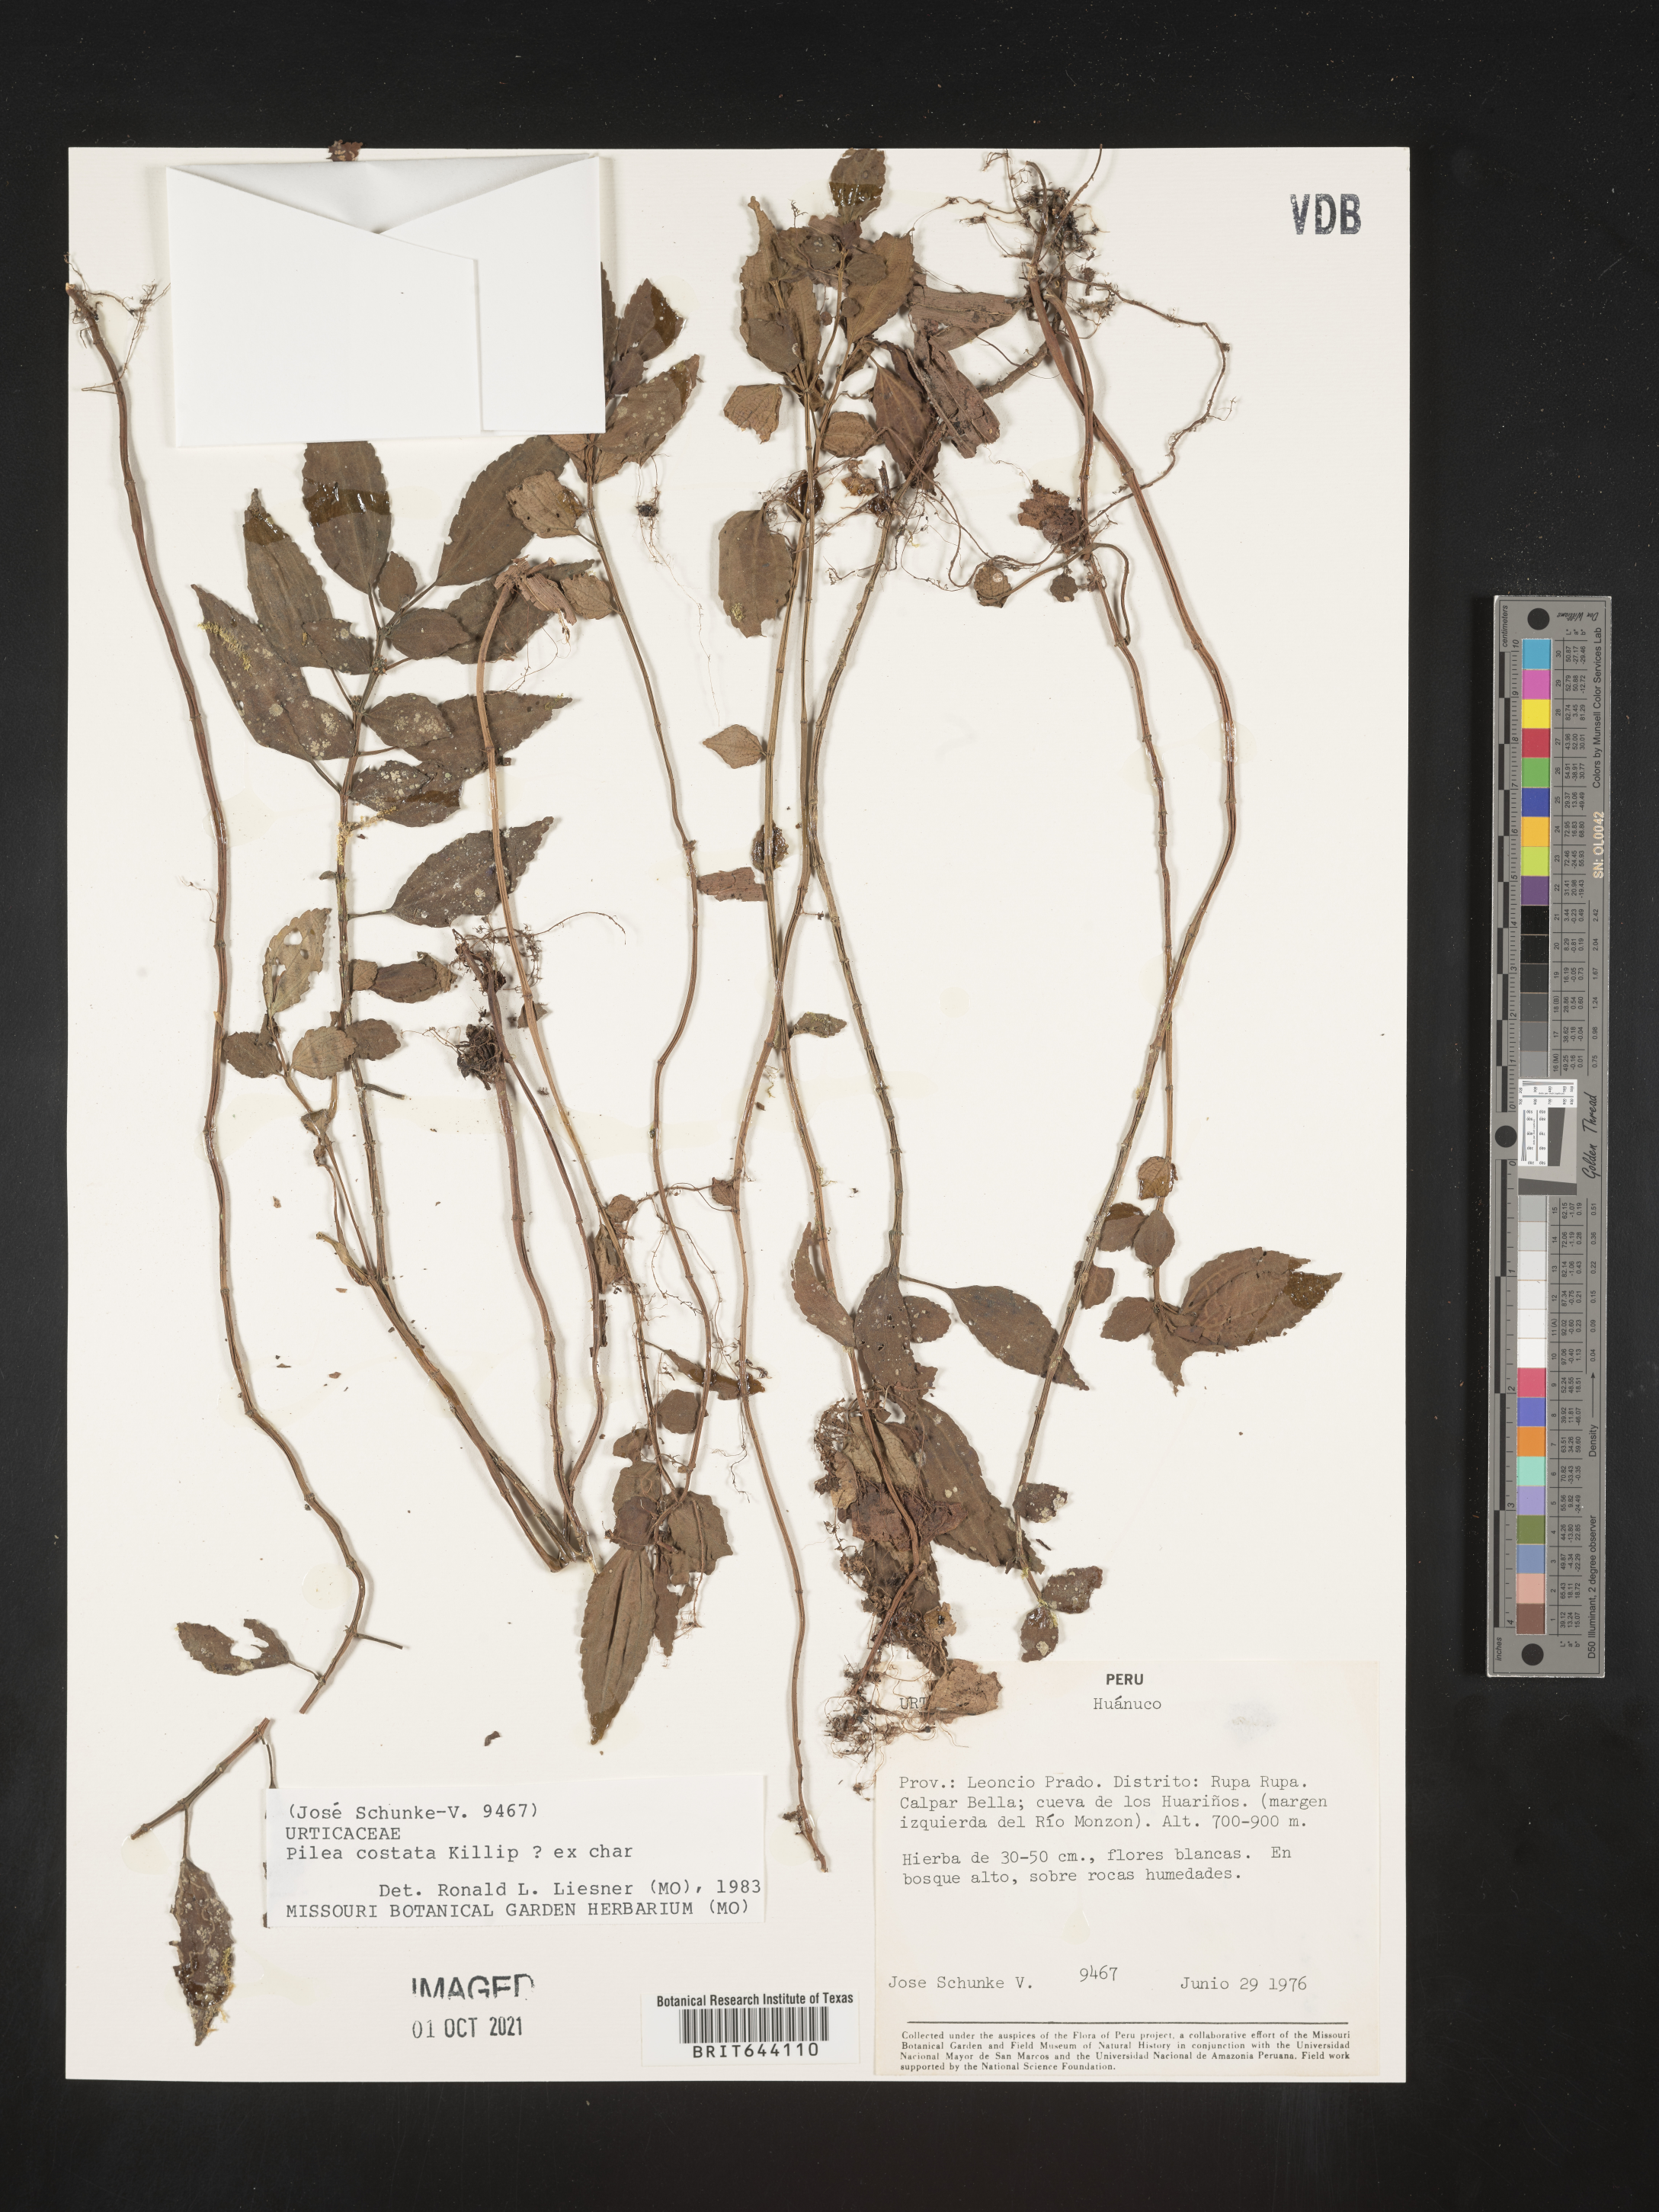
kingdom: Plantae
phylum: Tracheophyta
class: Magnoliopsida
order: Rosales
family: Urticaceae
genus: Pilea
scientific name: Pilea
